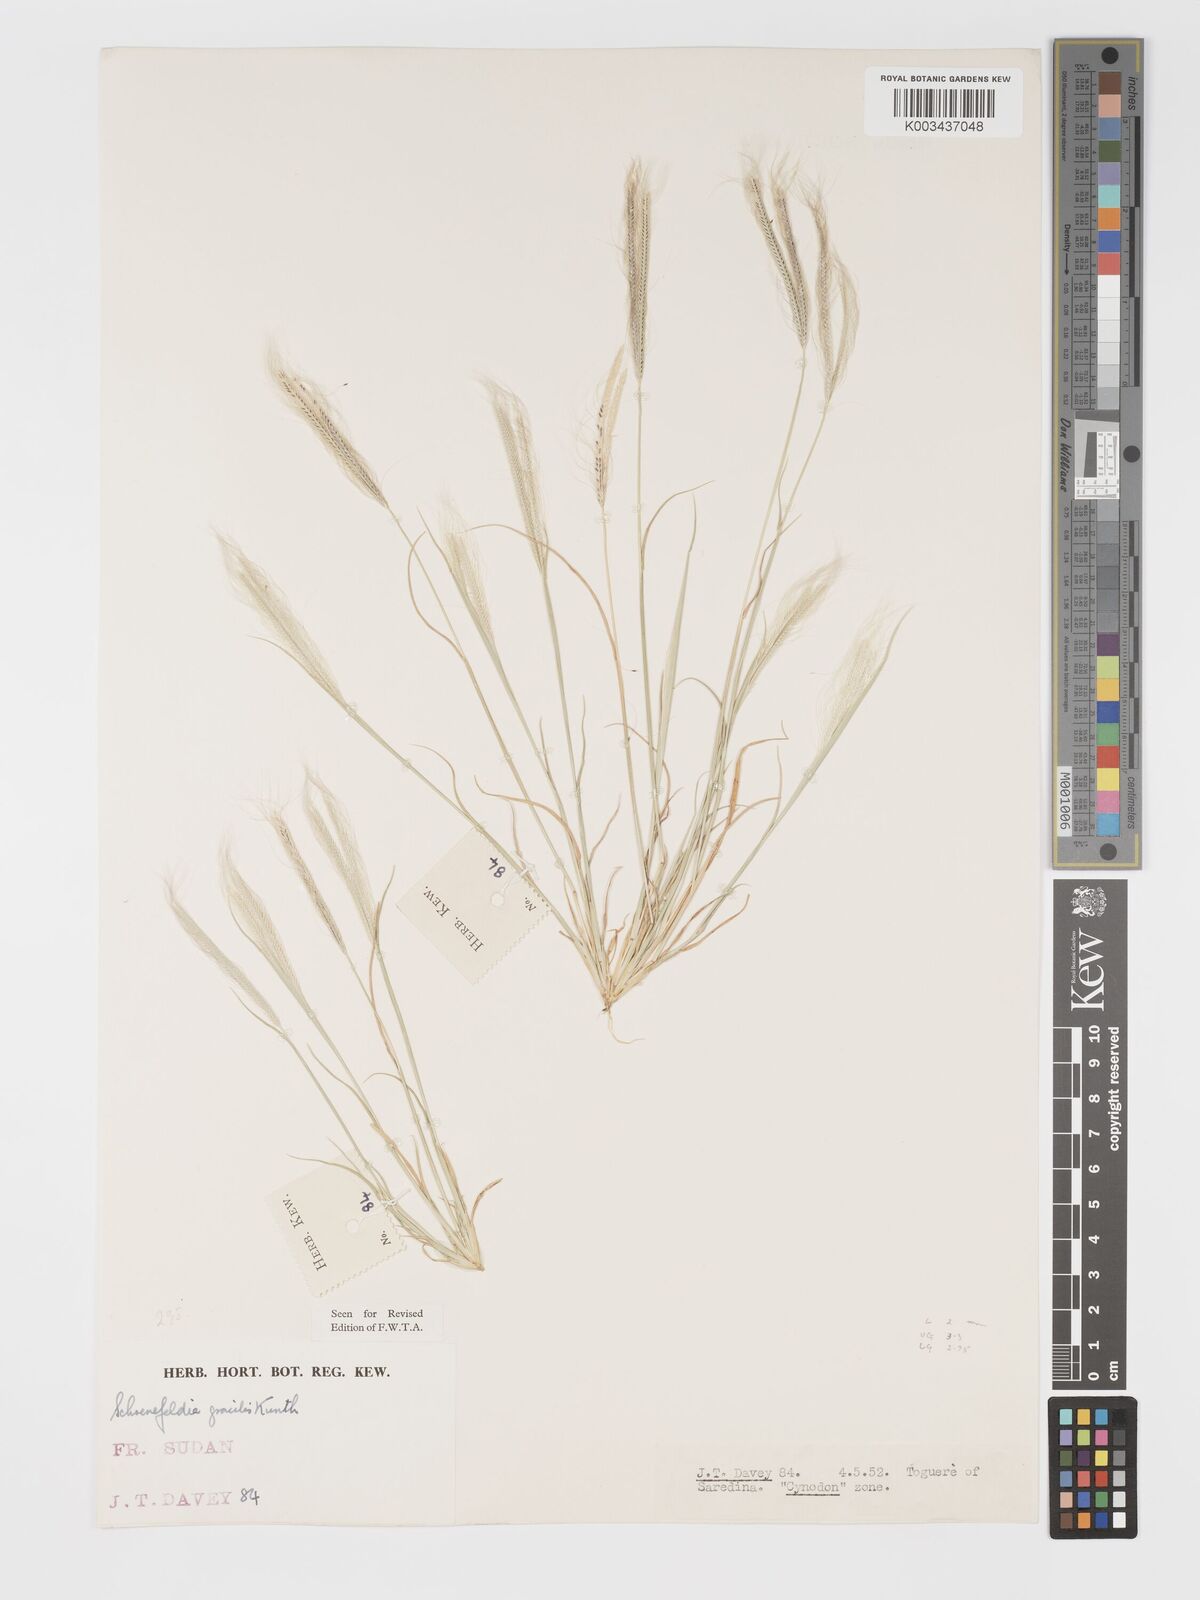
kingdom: Plantae
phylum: Tracheophyta
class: Liliopsida
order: Poales
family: Poaceae
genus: Schoenefeldia
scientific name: Schoenefeldia gracilis
